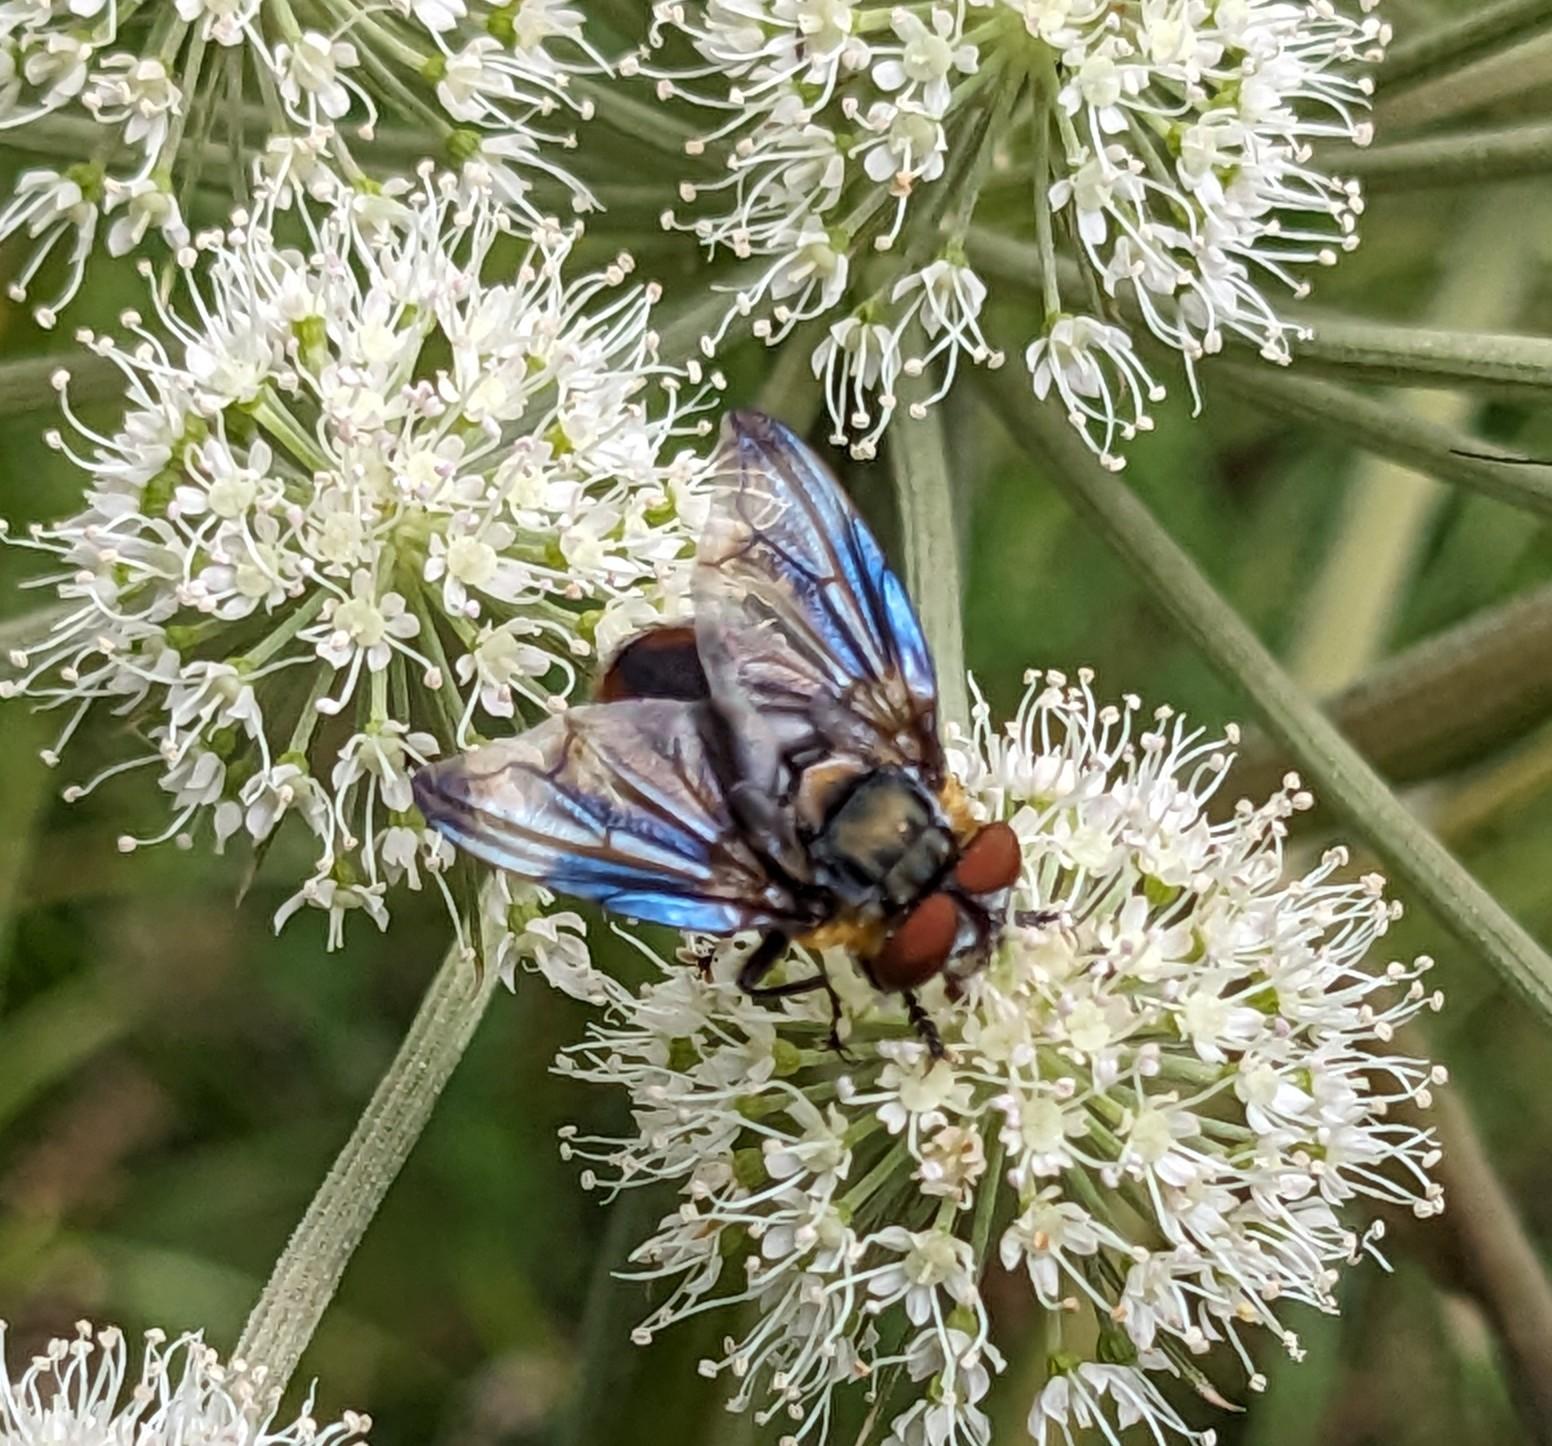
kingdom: Animalia
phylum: Arthropoda
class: Insecta
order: Diptera
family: Tachinidae
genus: Phasia
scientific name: Phasia hemiptera
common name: Blåvinget pragtsnylteflue
